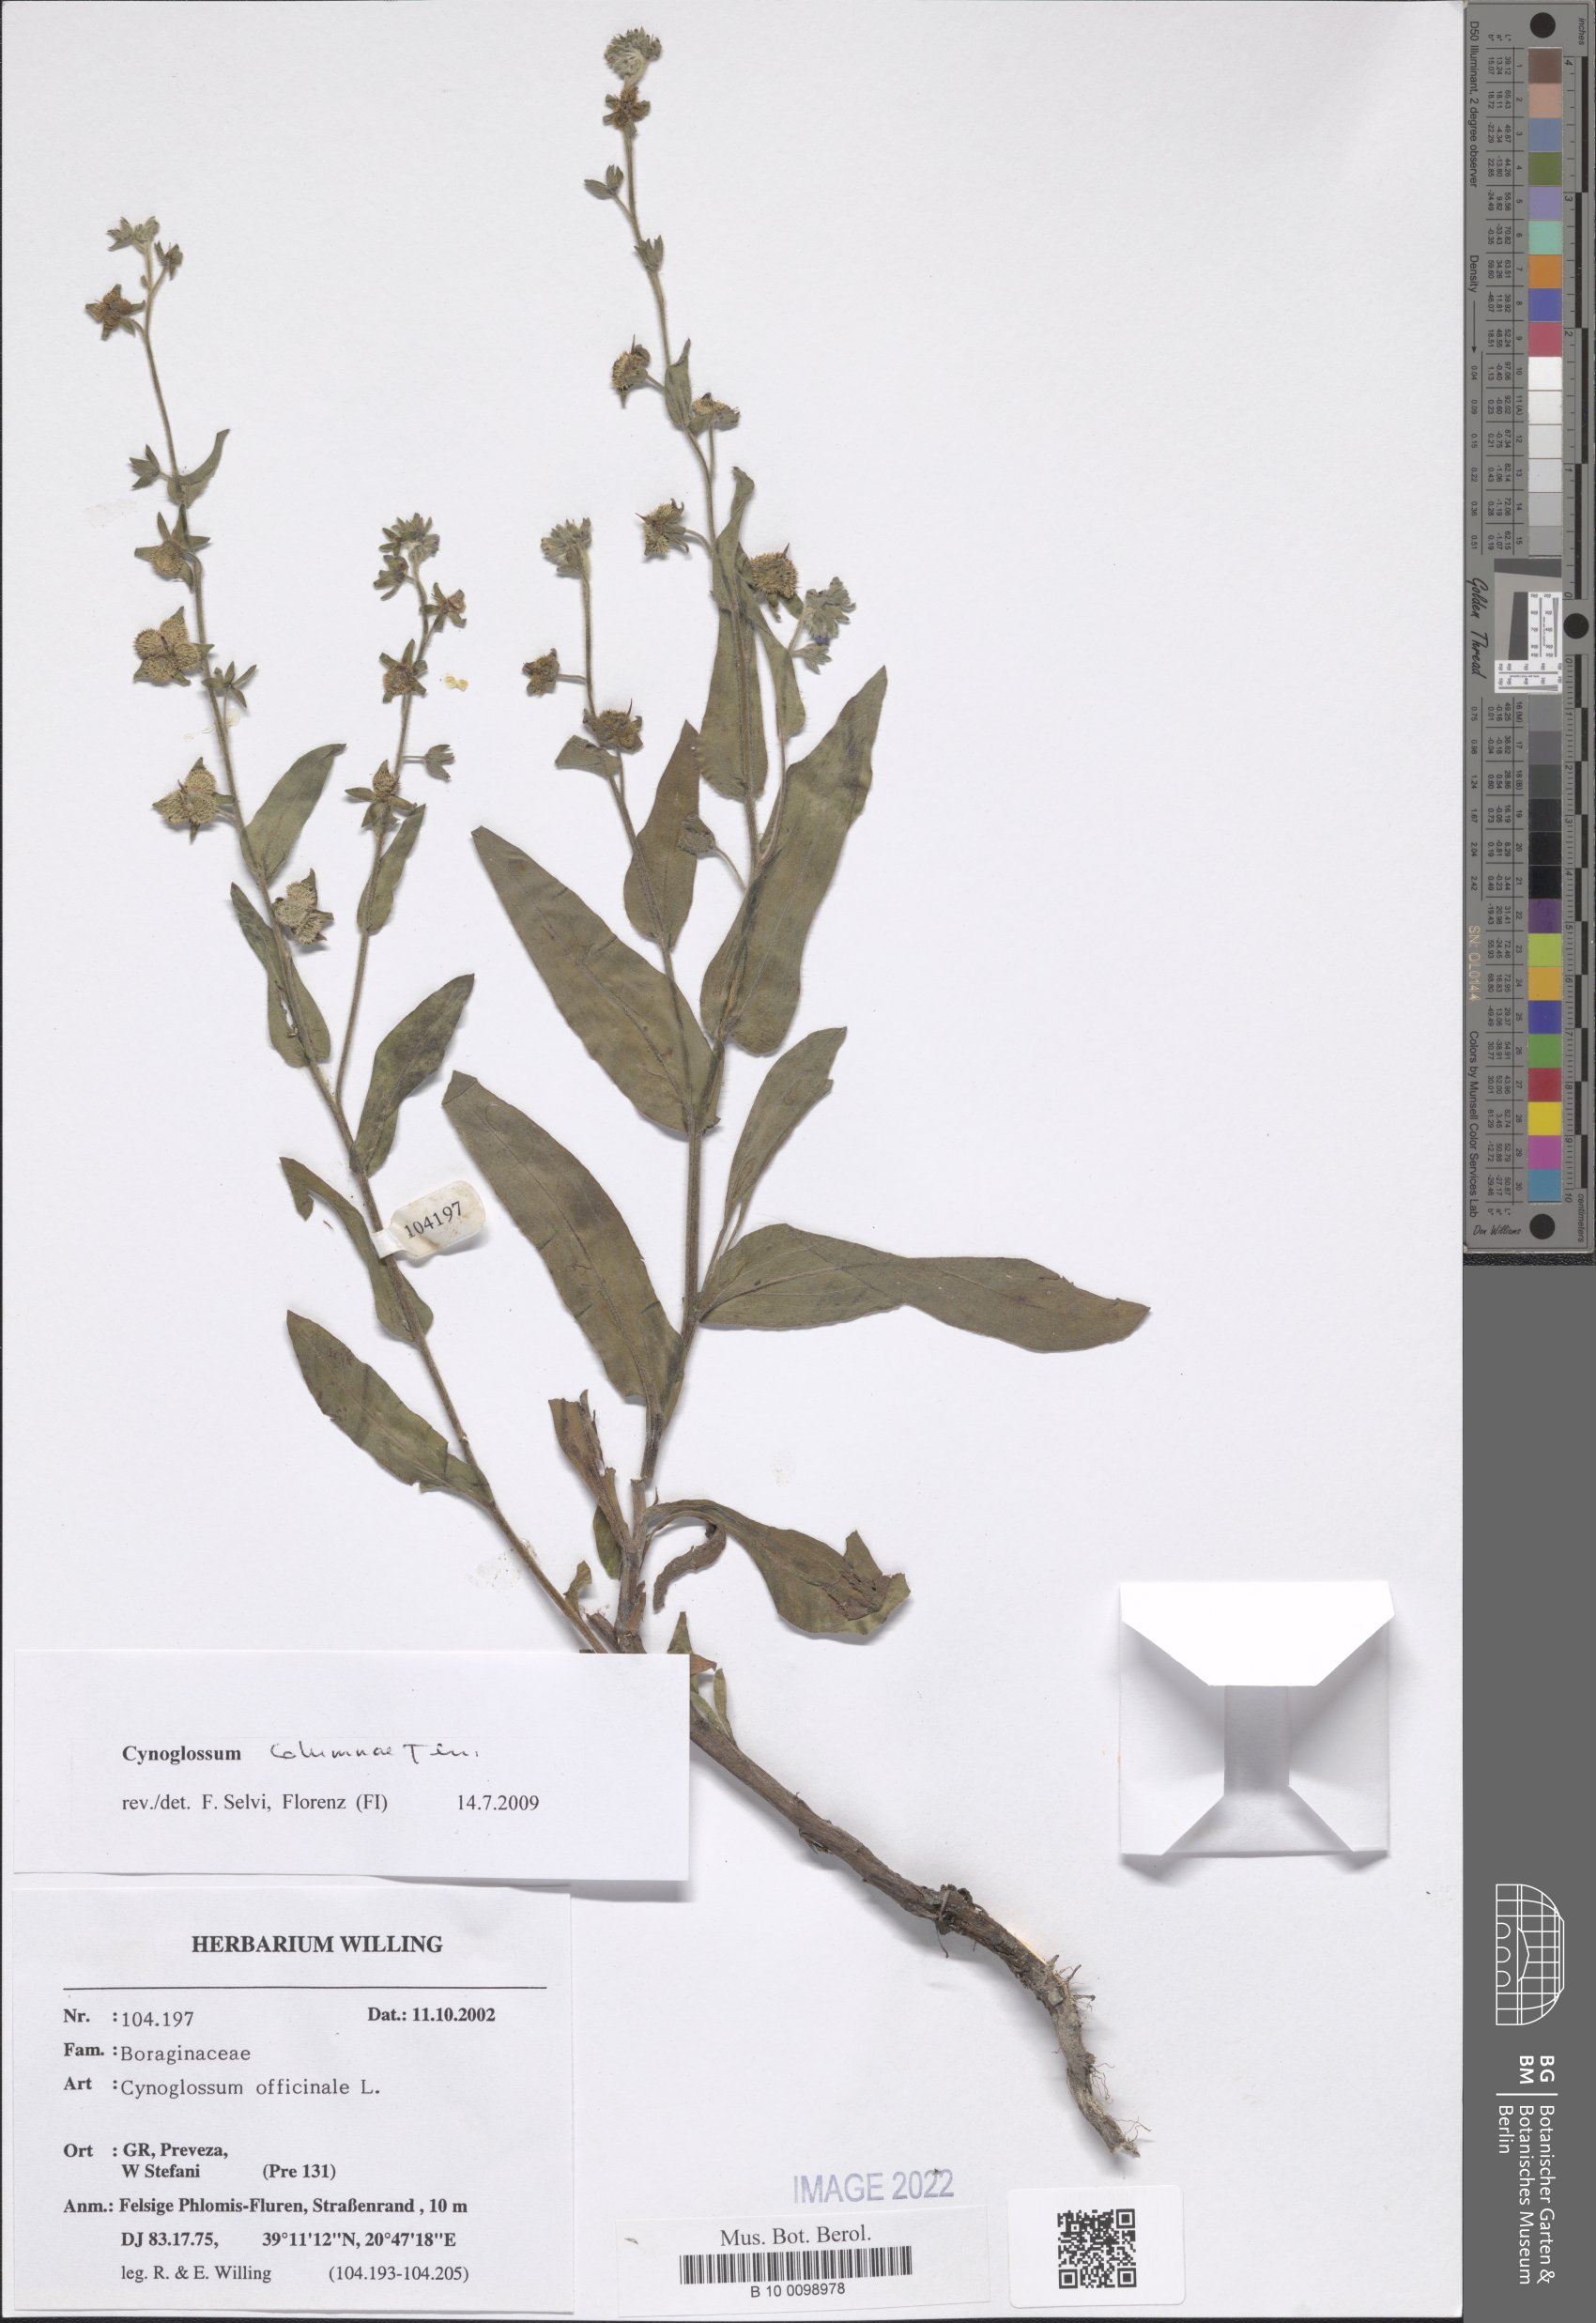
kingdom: Plantae
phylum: Tracheophyta
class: Magnoliopsida
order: Boraginales
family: Boraginaceae
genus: Rindera
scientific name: Rindera columnae
